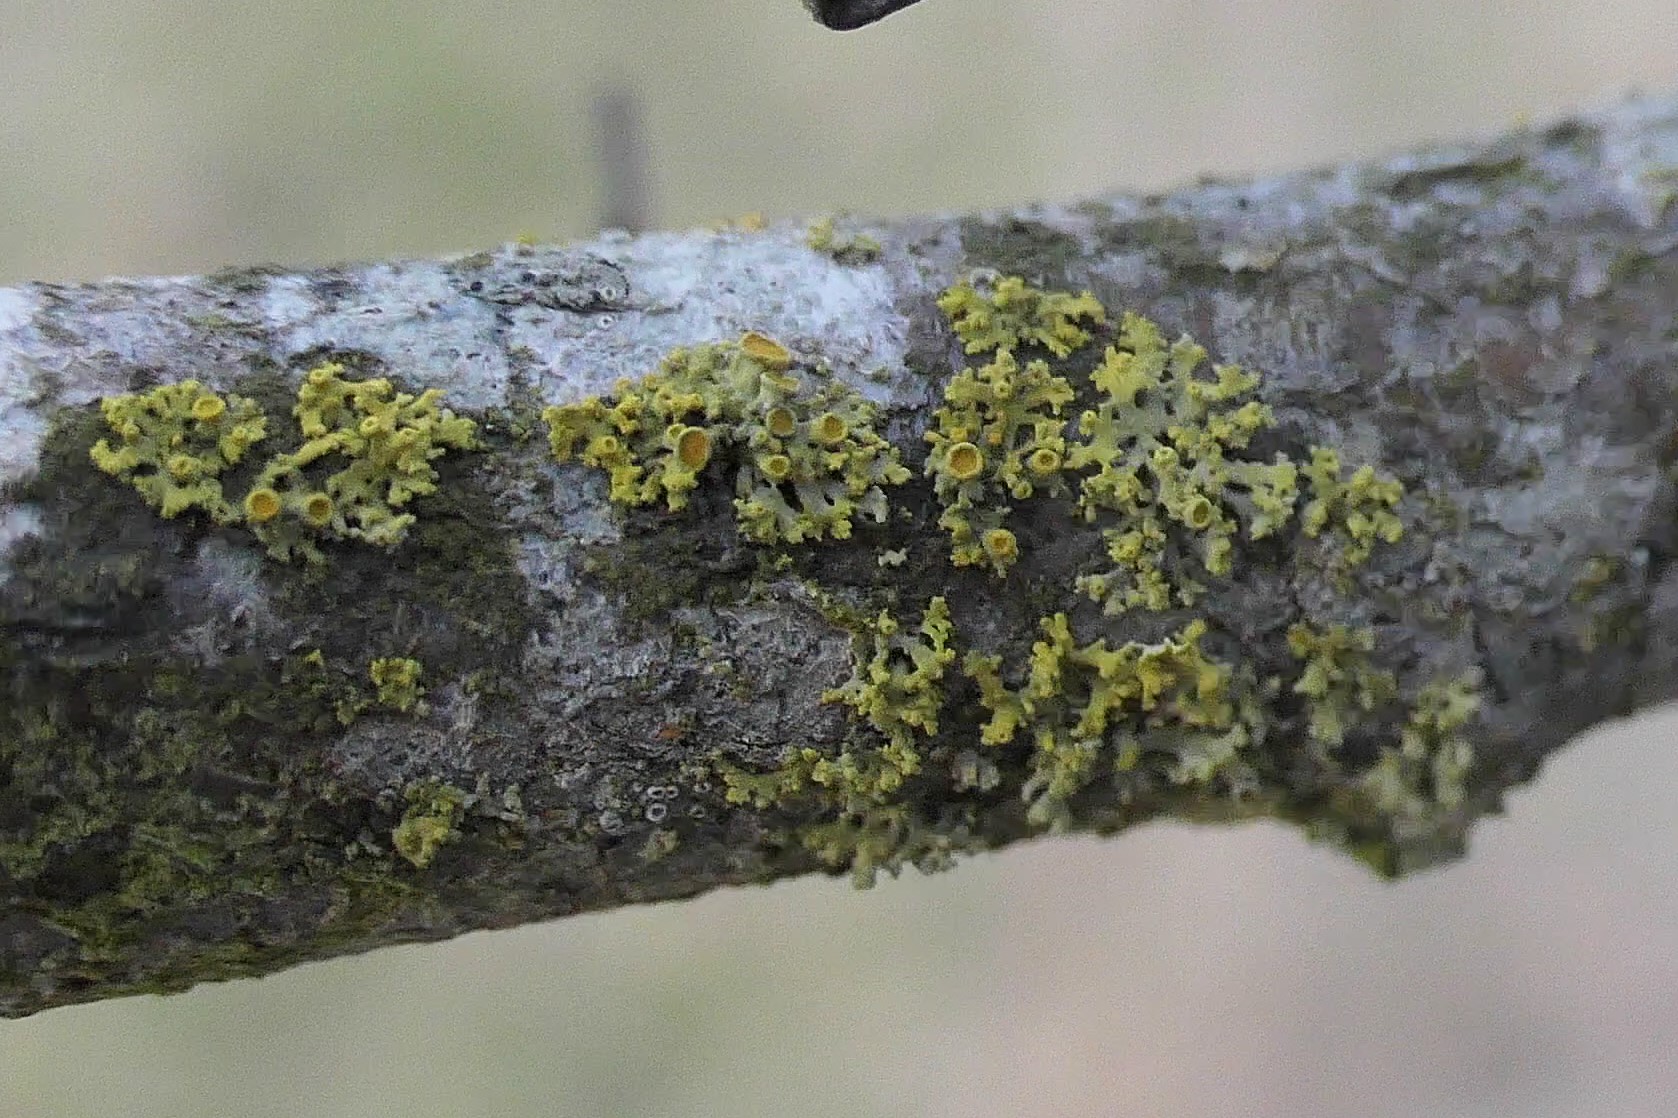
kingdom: Fungi
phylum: Ascomycota
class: Lecanoromycetes
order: Teloschistales
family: Teloschistaceae
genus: Polycauliona
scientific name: Polycauliona polycarpa
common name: mangefrugtet orangelav
